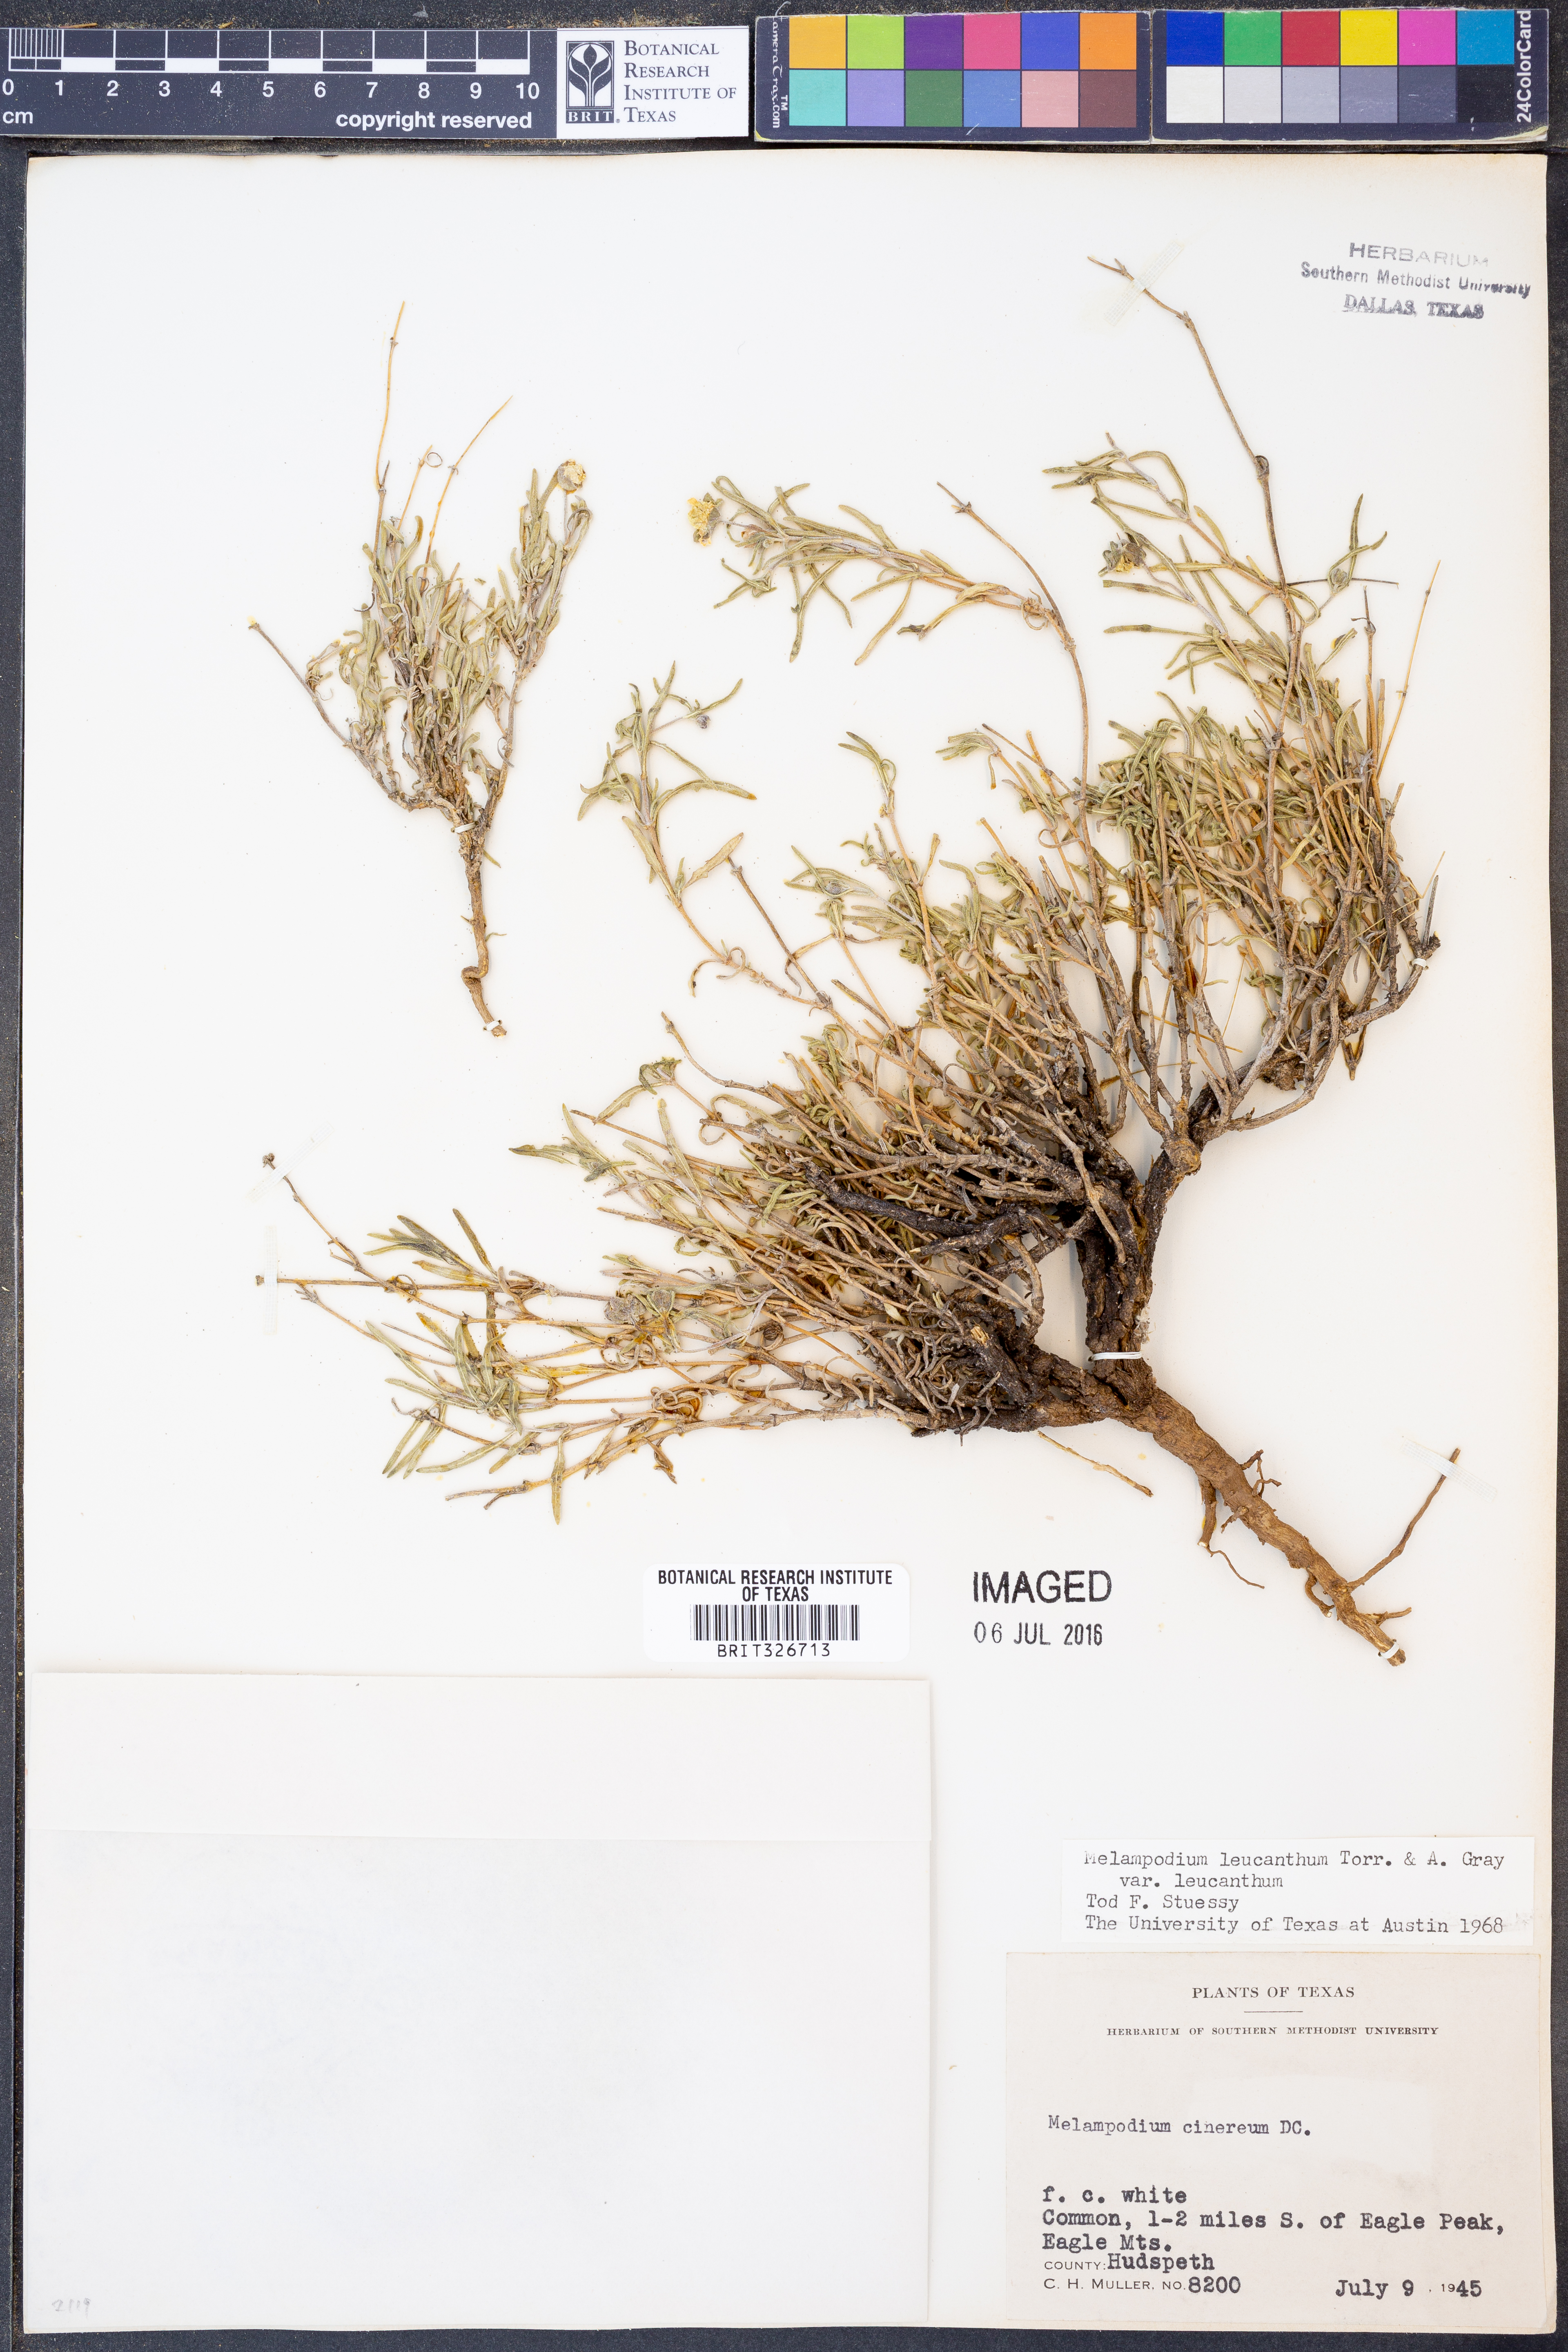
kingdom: Plantae
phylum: Tracheophyta
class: Magnoliopsida
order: Asterales
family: Asteraceae
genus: Melampodium
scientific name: Melampodium leucanthum
